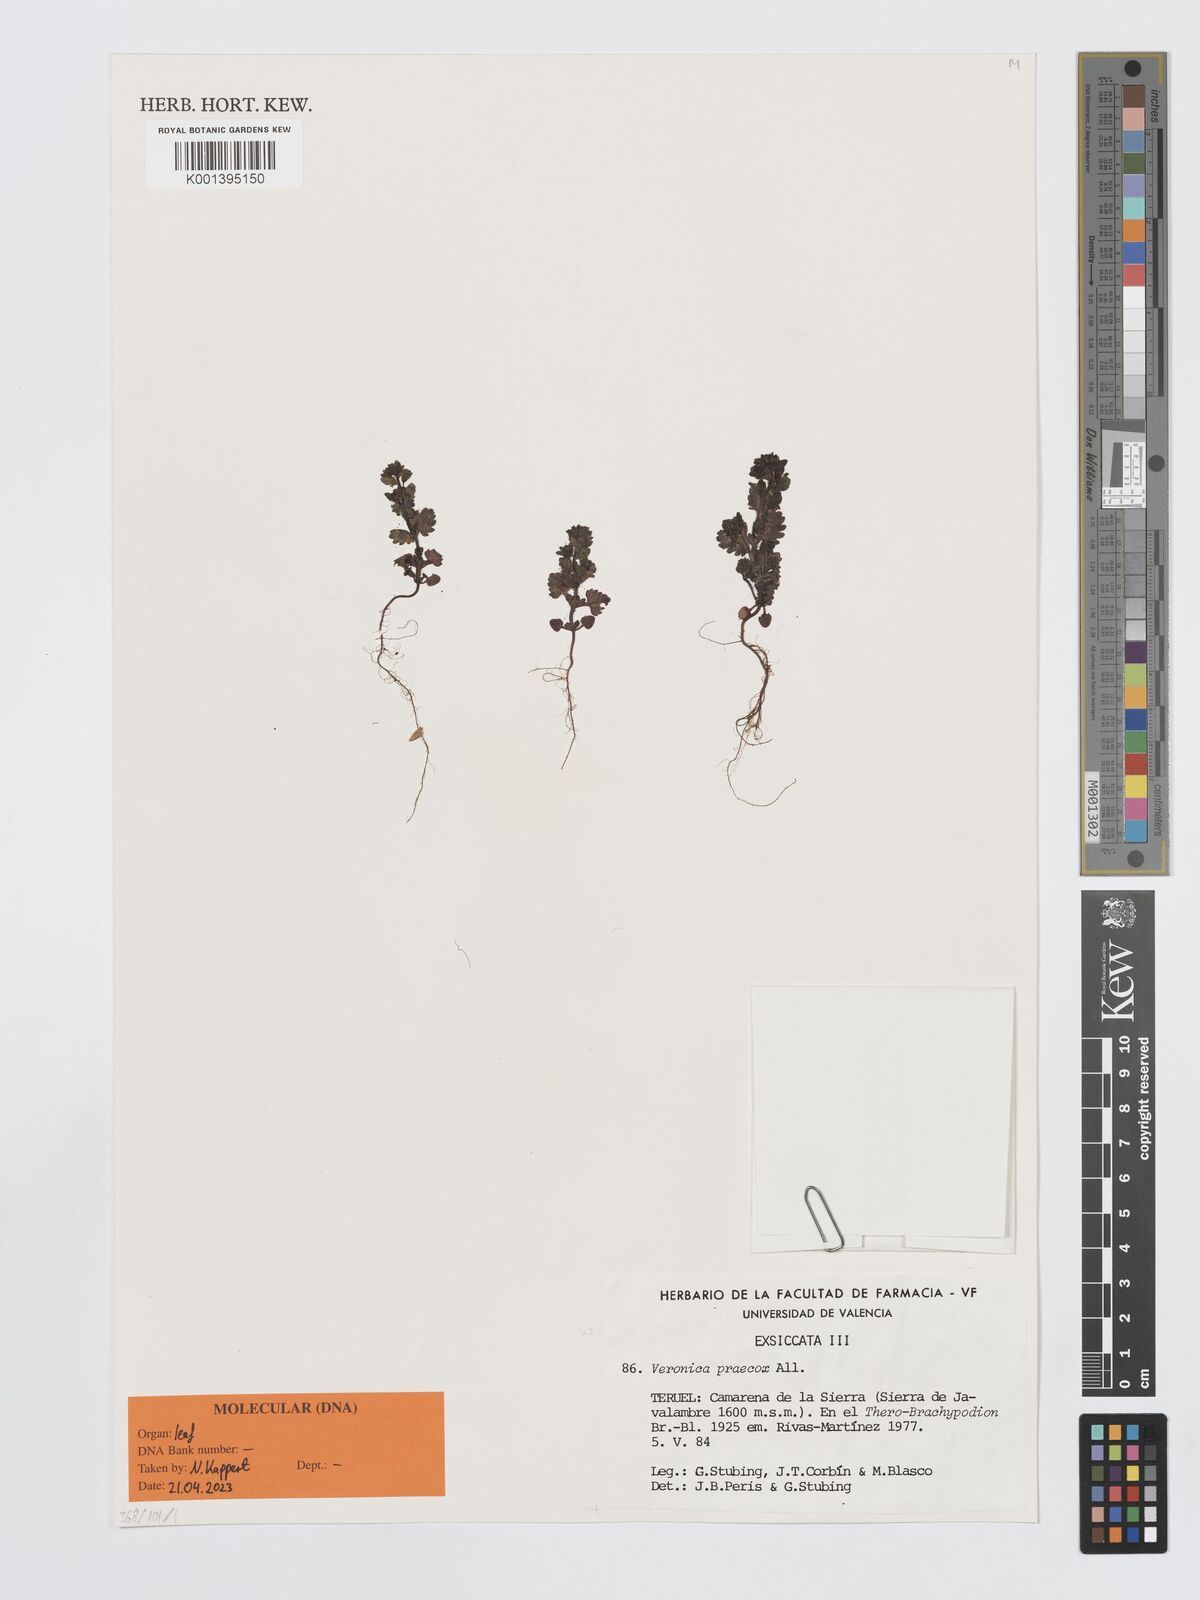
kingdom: Plantae
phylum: Tracheophyta
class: Magnoliopsida
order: Lamiales
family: Plantaginaceae
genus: Veronica
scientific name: Veronica praecox
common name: Breckland speedwell
